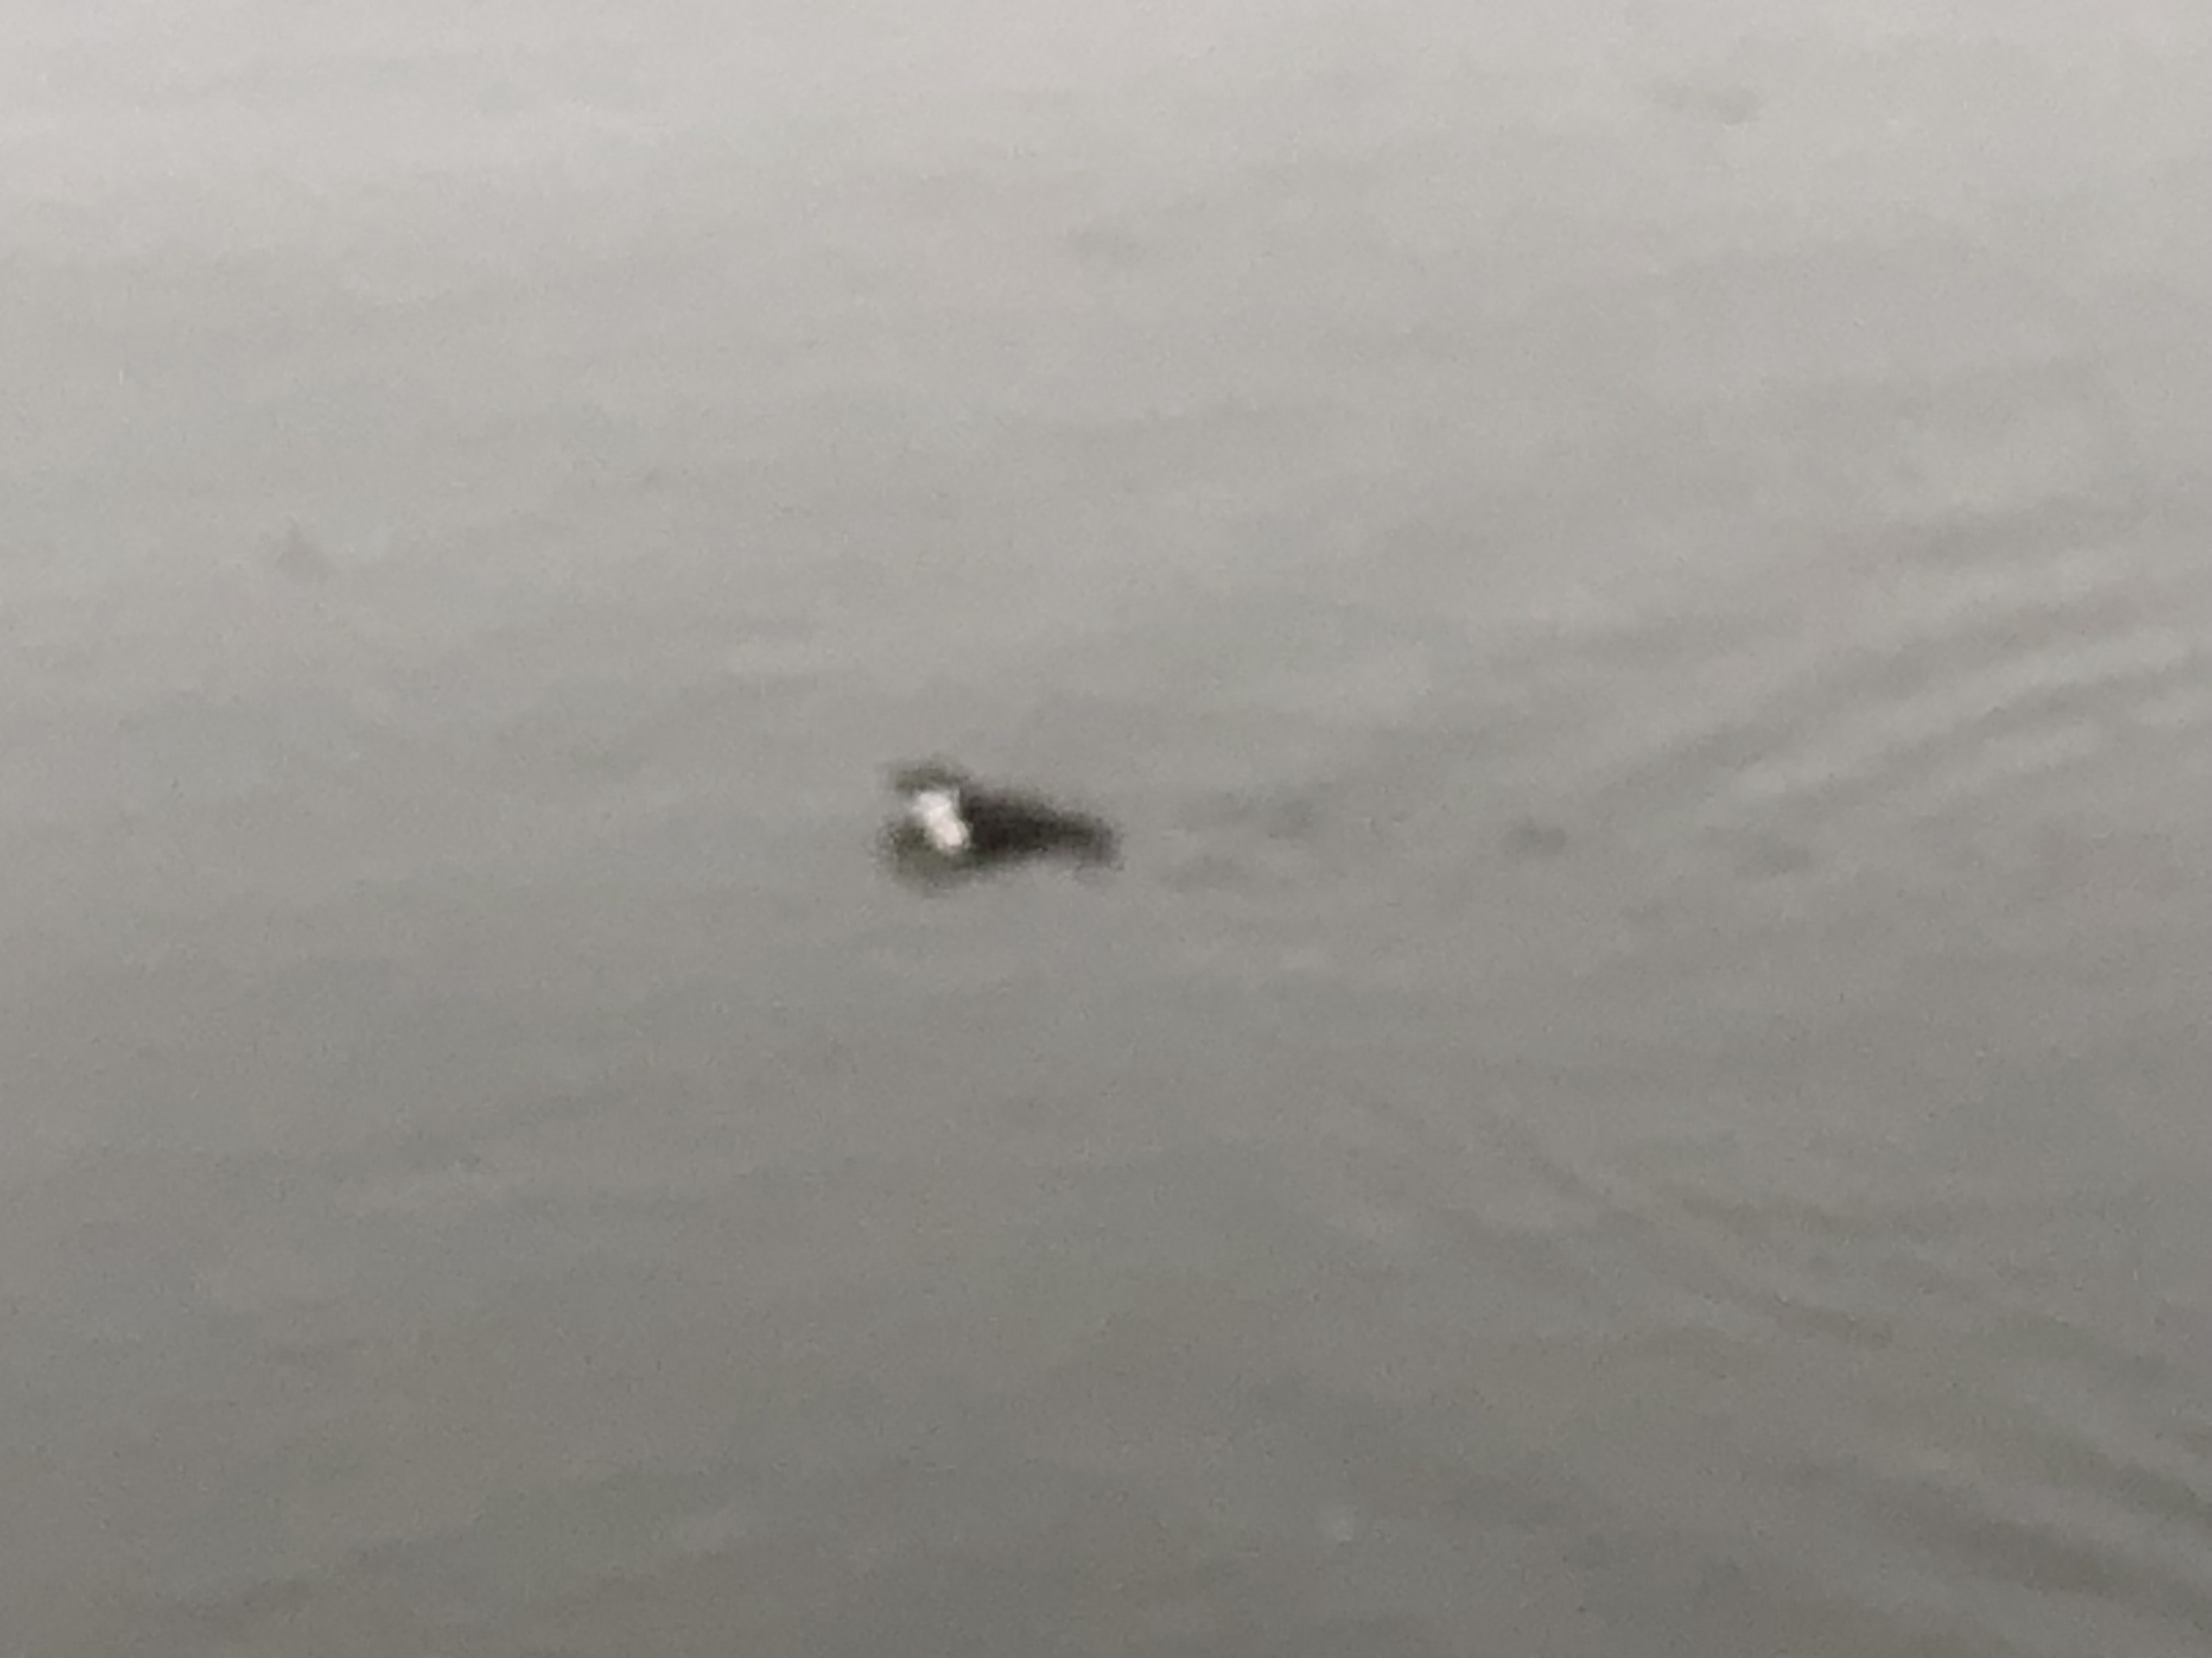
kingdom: Animalia
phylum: Chordata
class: Aves
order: Charadriiformes
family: Alcidae
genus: Alle
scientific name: Alle alle
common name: Søkonge
